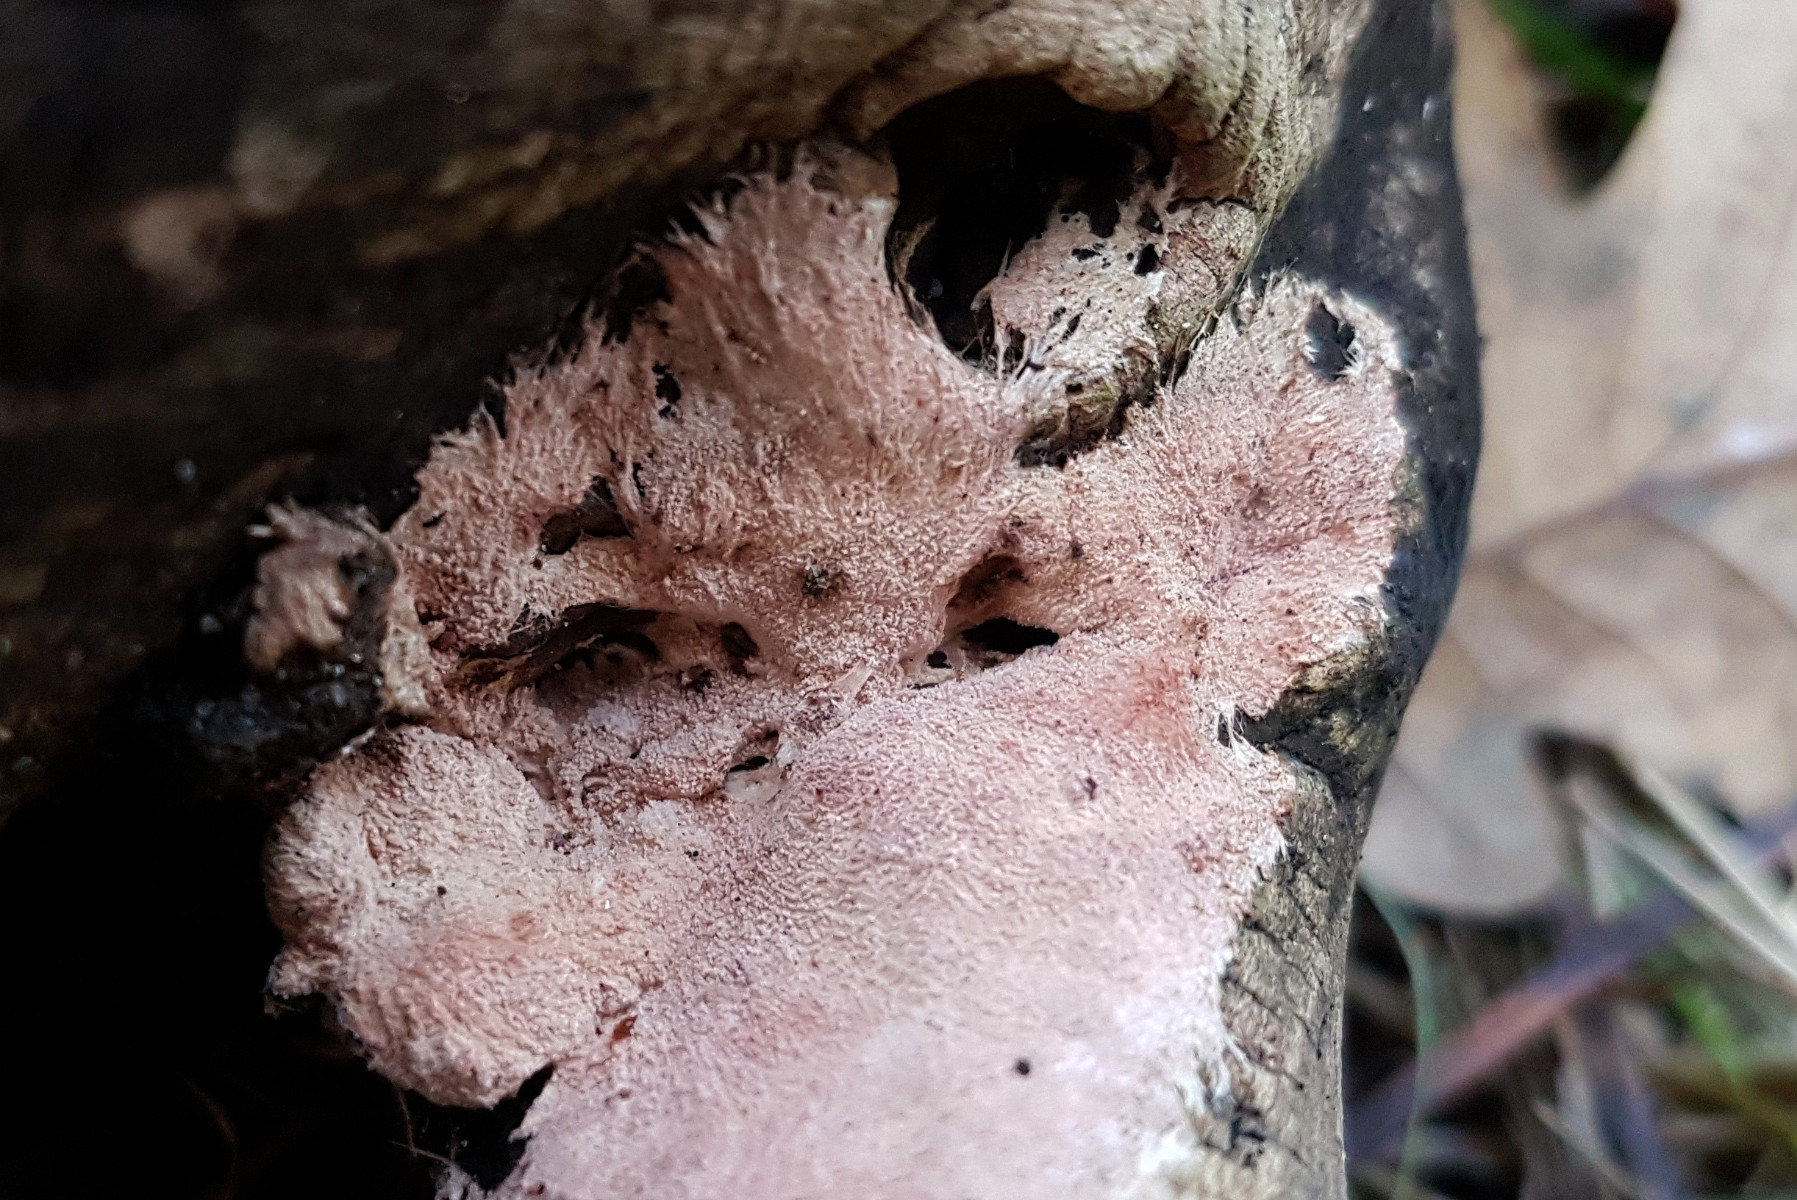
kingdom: Fungi
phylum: Basidiomycota
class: Agaricomycetes
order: Polyporales
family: Steccherinaceae
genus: Steccherinum
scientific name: Steccherinum fimbriatum
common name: trådet skønpig
